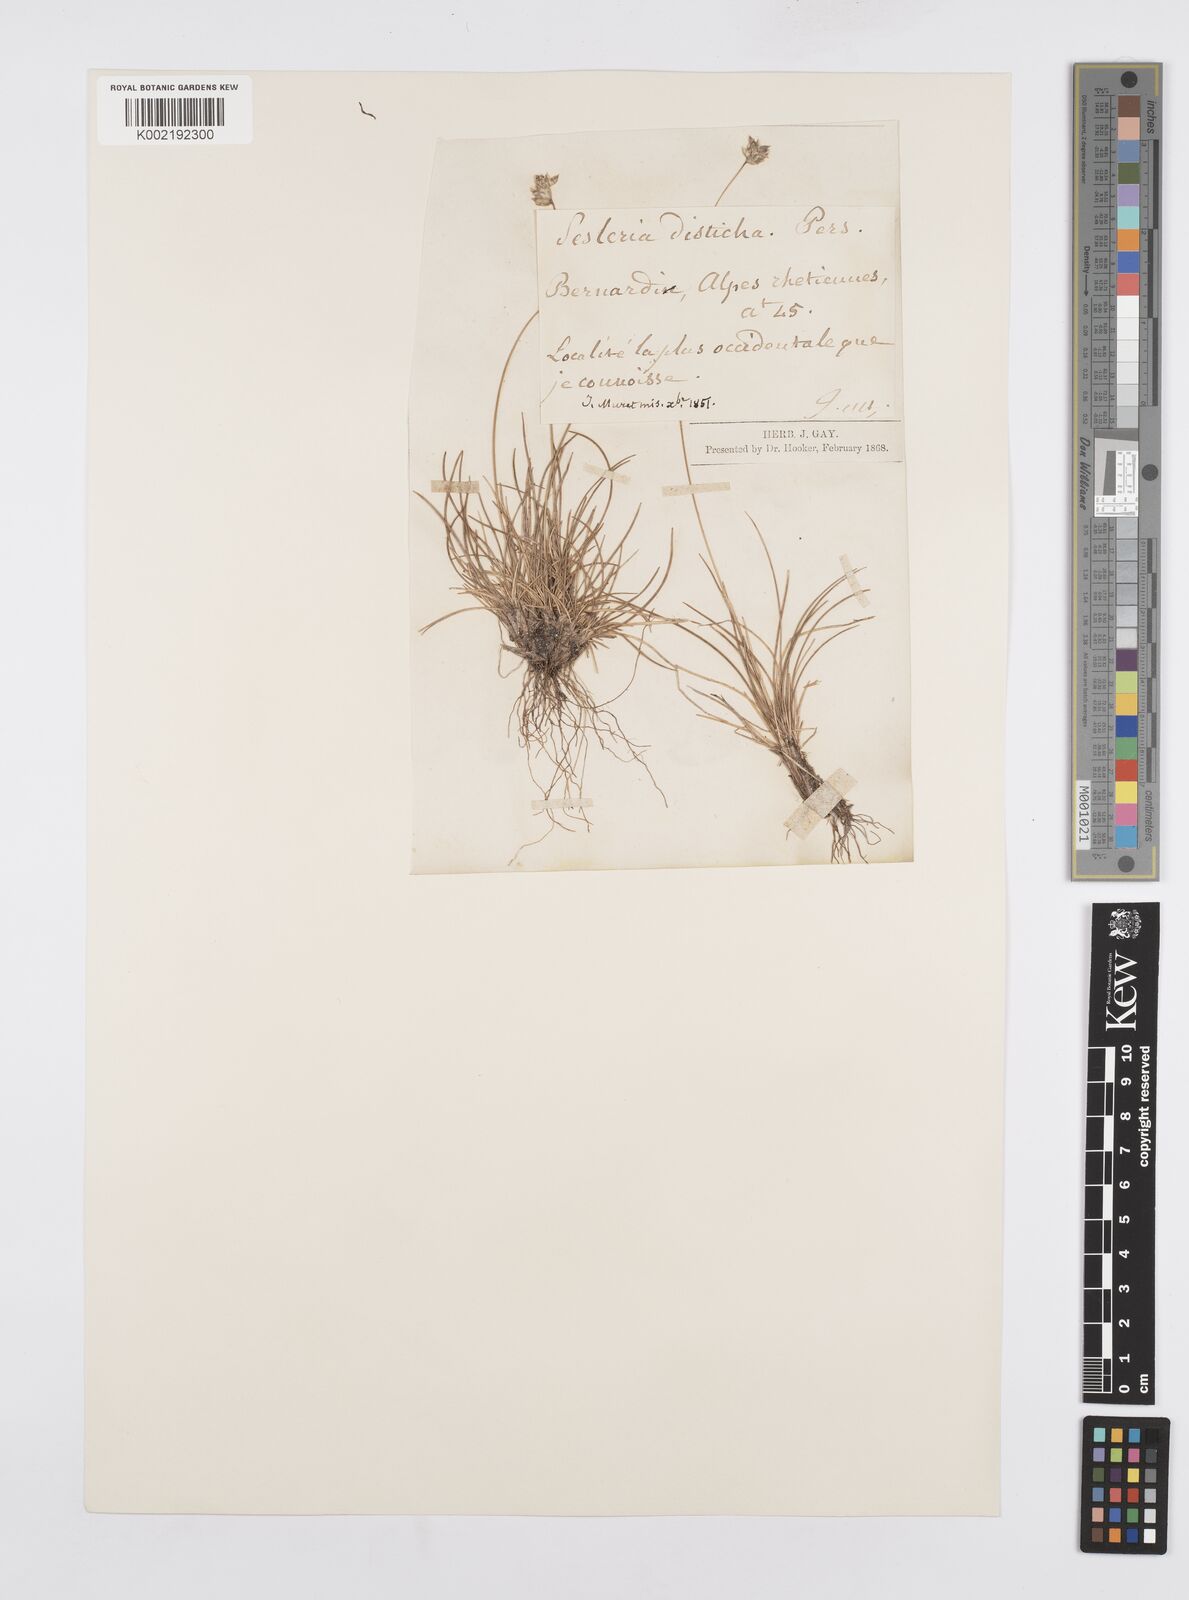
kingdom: Plantae
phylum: Tracheophyta
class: Liliopsida
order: Poales
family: Poaceae
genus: Oreochloa
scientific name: Oreochloa disticha
